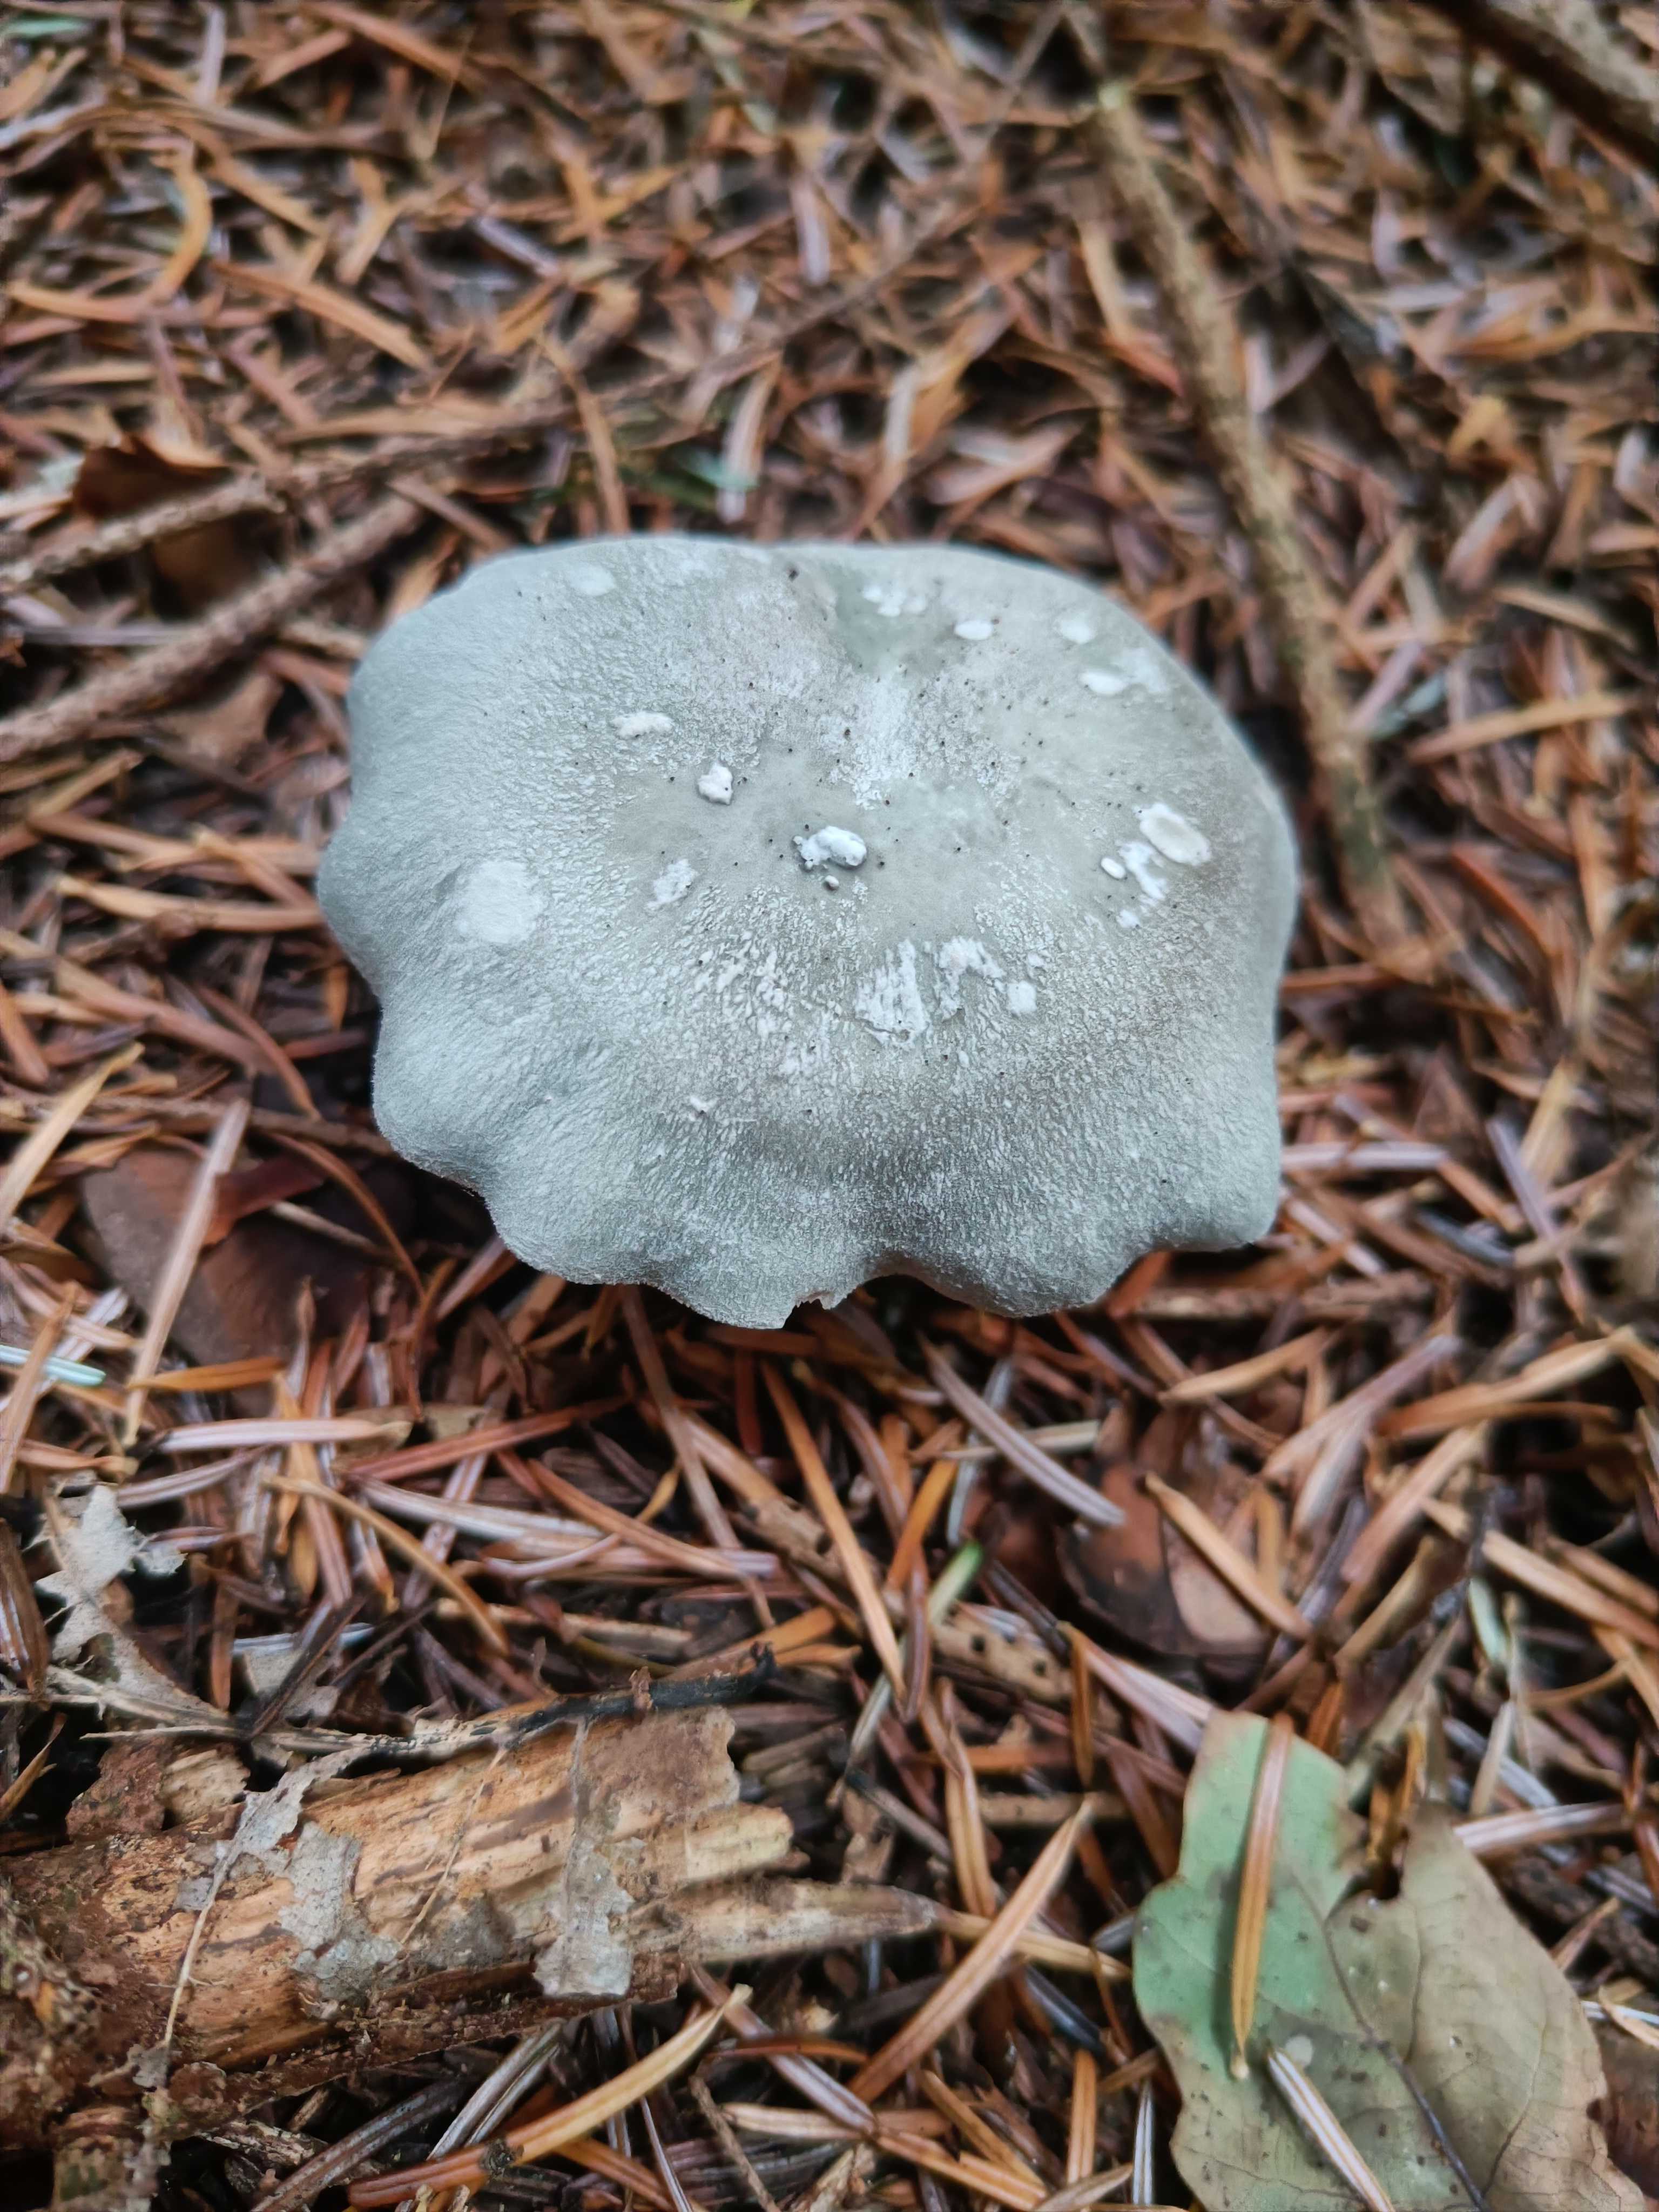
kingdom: Fungi
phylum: Basidiomycota
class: Agaricomycetes
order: Agaricales
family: Tricholomataceae
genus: Clitocybe
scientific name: Clitocybe odora
